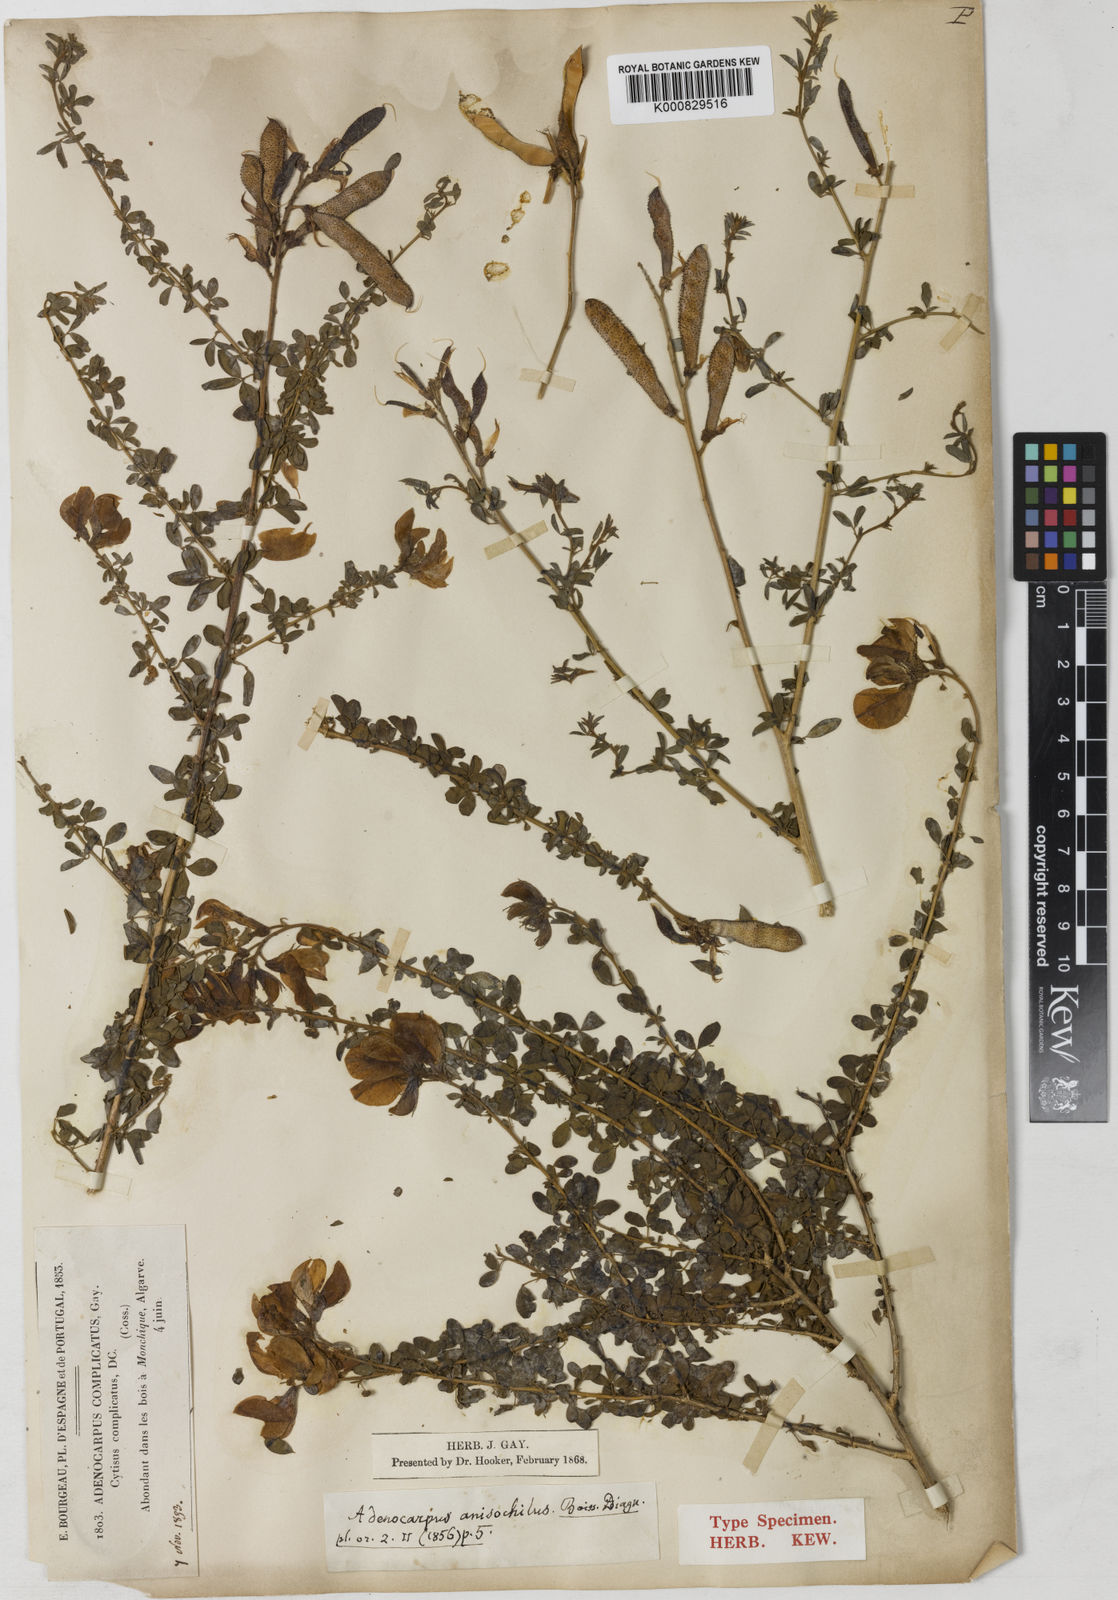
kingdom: Plantae
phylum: Tracheophyta
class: Magnoliopsida
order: Fabales
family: Fabaceae
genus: Adenocarpus
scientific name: Adenocarpus hispanicus
